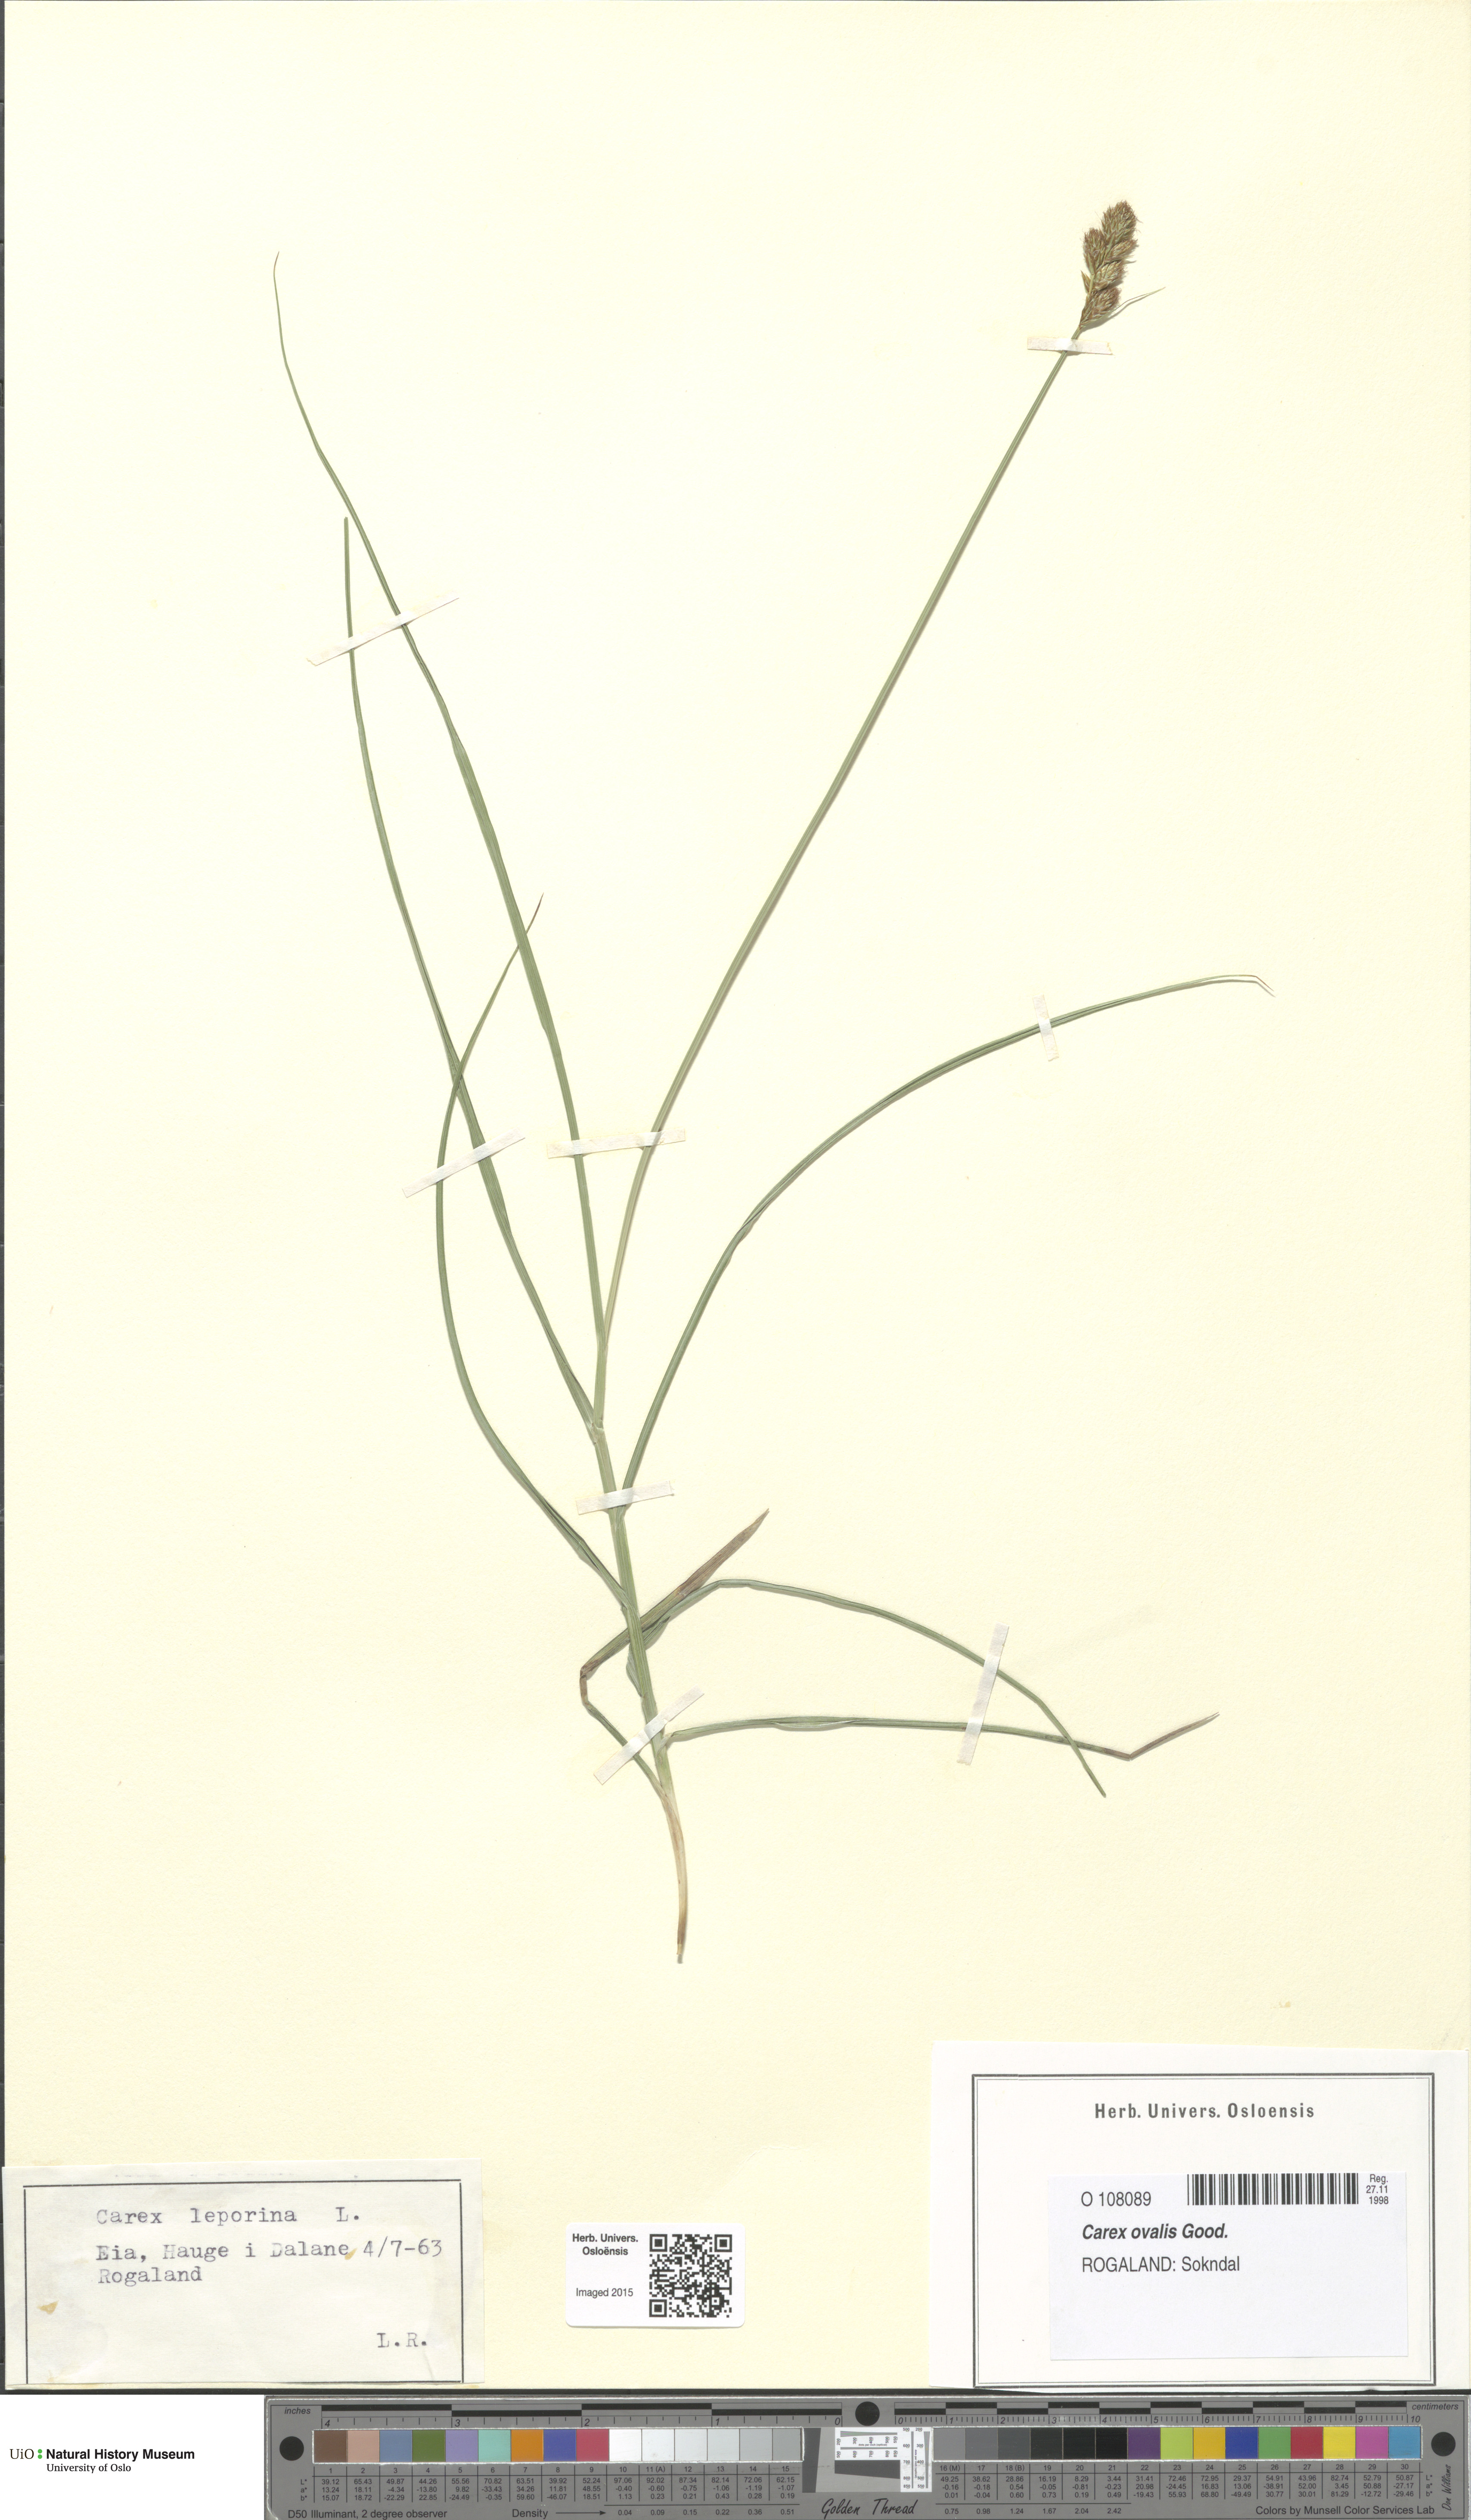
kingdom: Plantae
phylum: Tracheophyta
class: Liliopsida
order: Poales
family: Cyperaceae
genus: Carex
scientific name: Carex leporina
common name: Oval sedge
